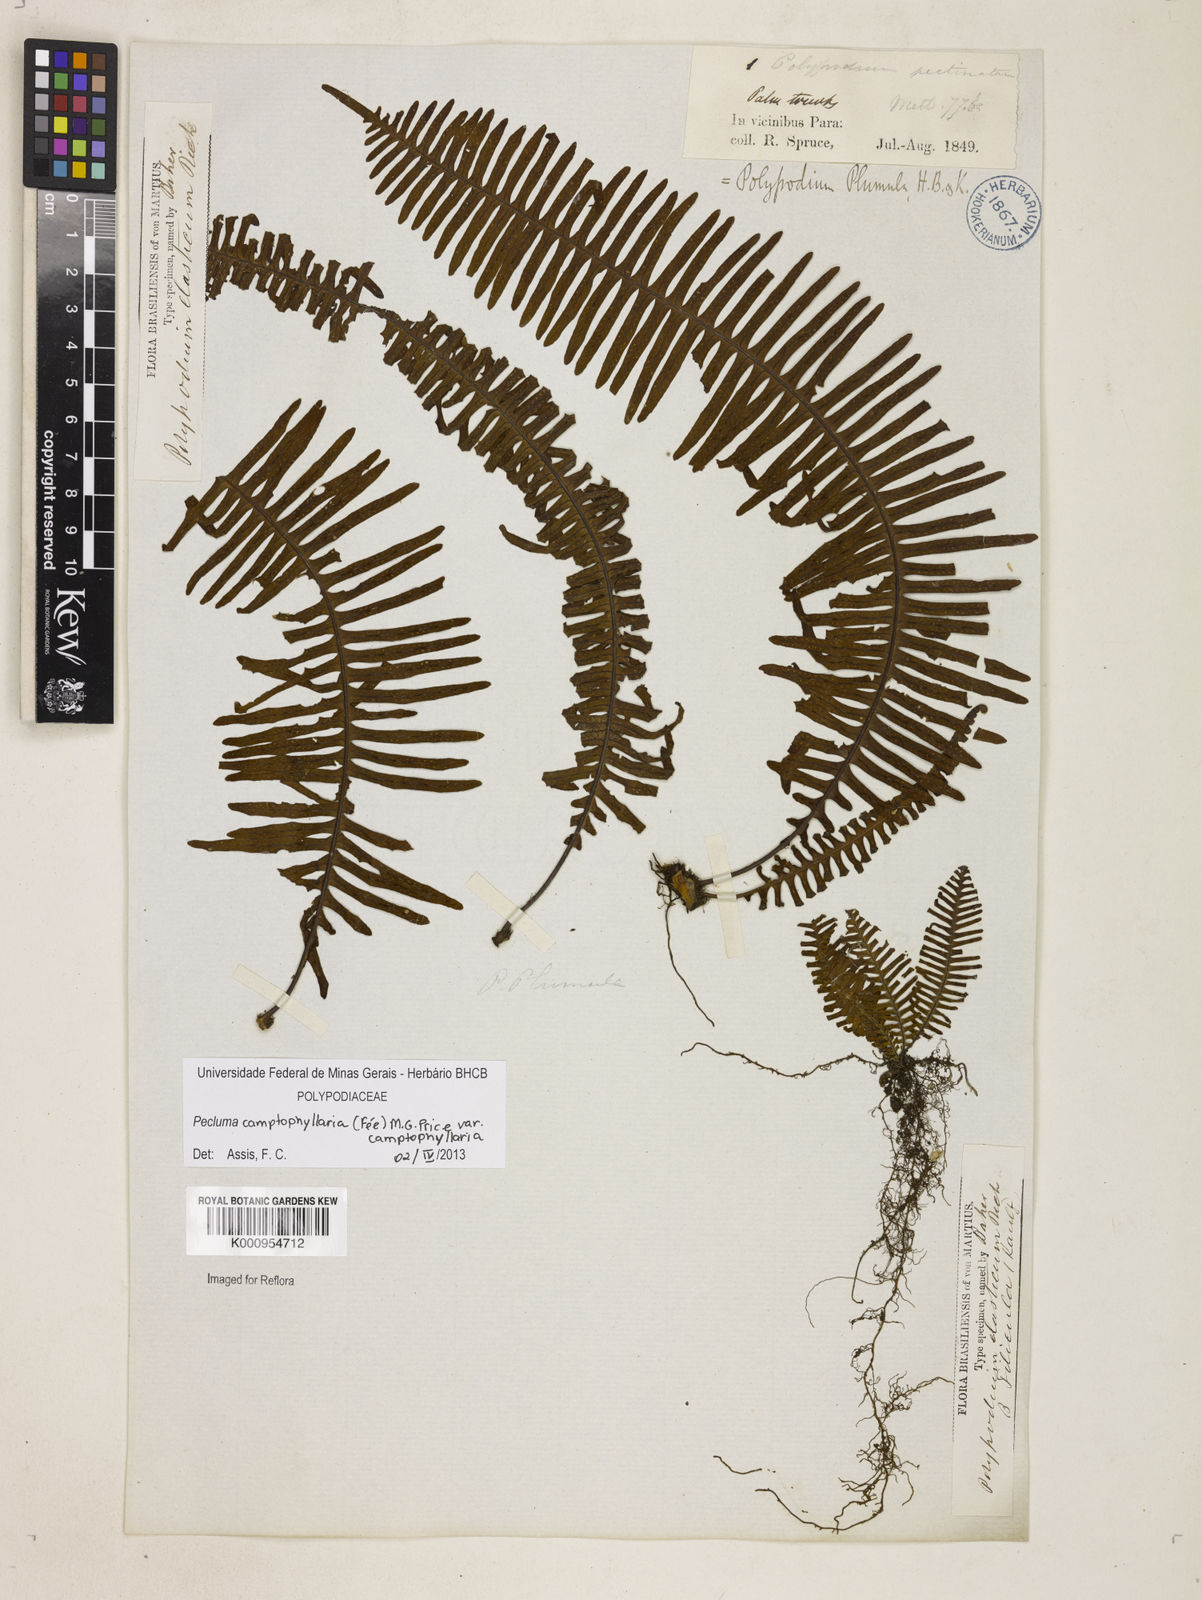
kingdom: Plantae
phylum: Tracheophyta
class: Polypodiopsida
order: Polypodiales
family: Polypodiaceae
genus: Pecluma
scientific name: Pecluma
